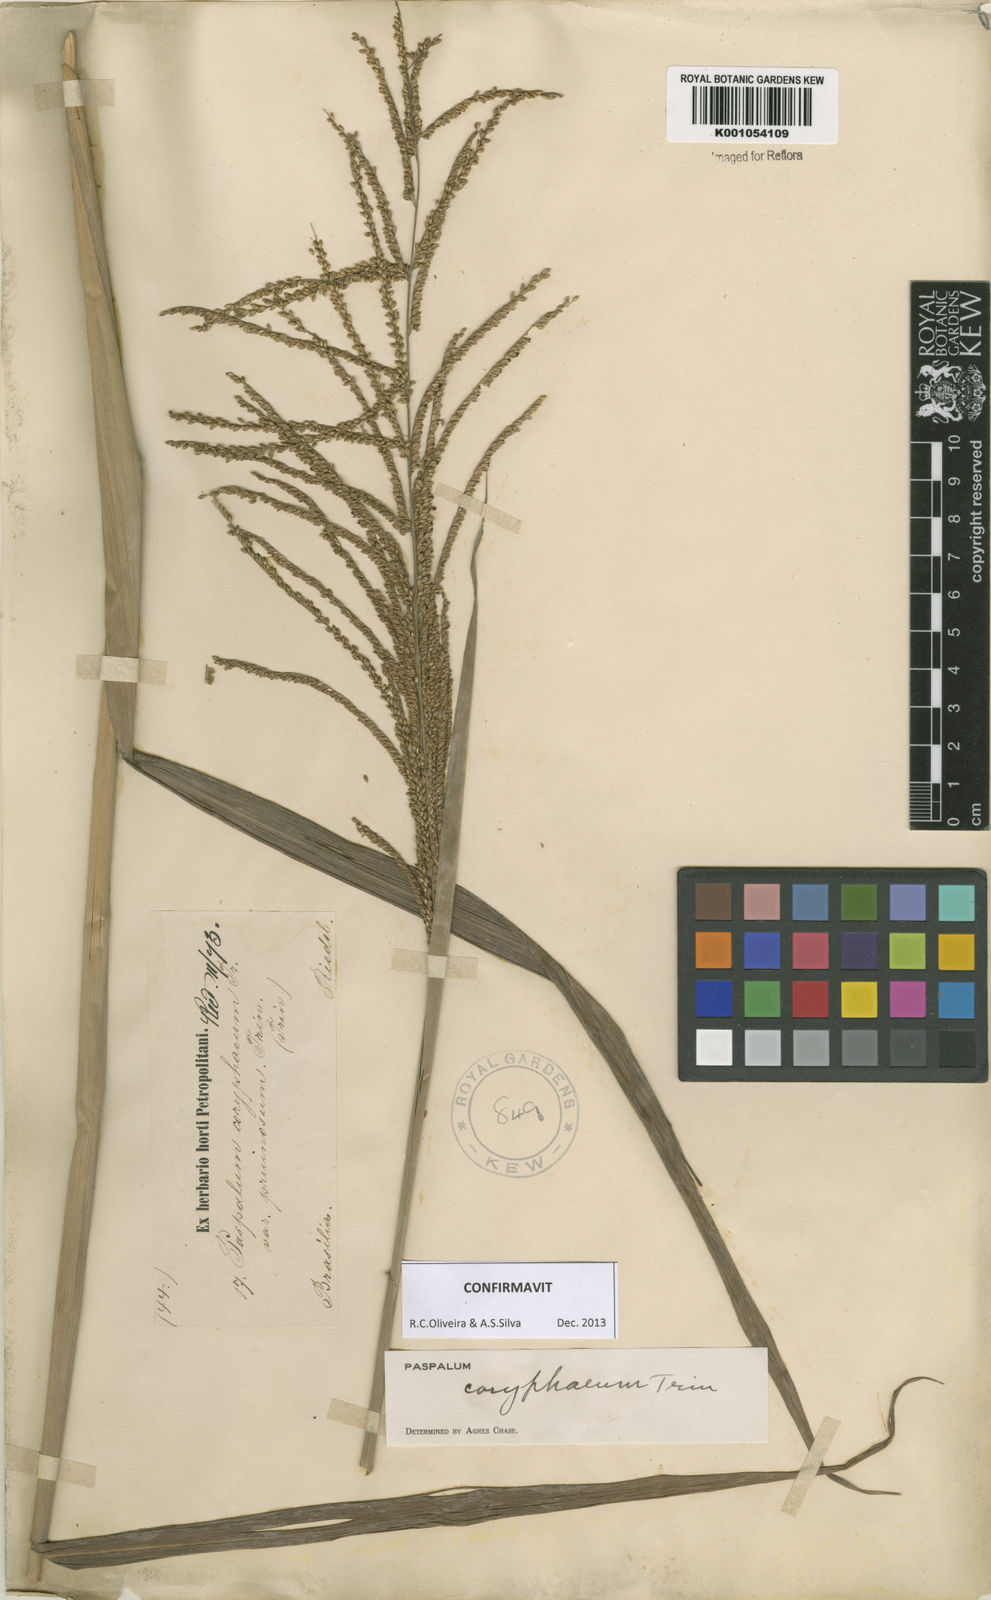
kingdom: Plantae
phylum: Tracheophyta
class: Liliopsida
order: Poales
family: Poaceae
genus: Paspalum
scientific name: Paspalum coryphaeum
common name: Emperor crowngrass
